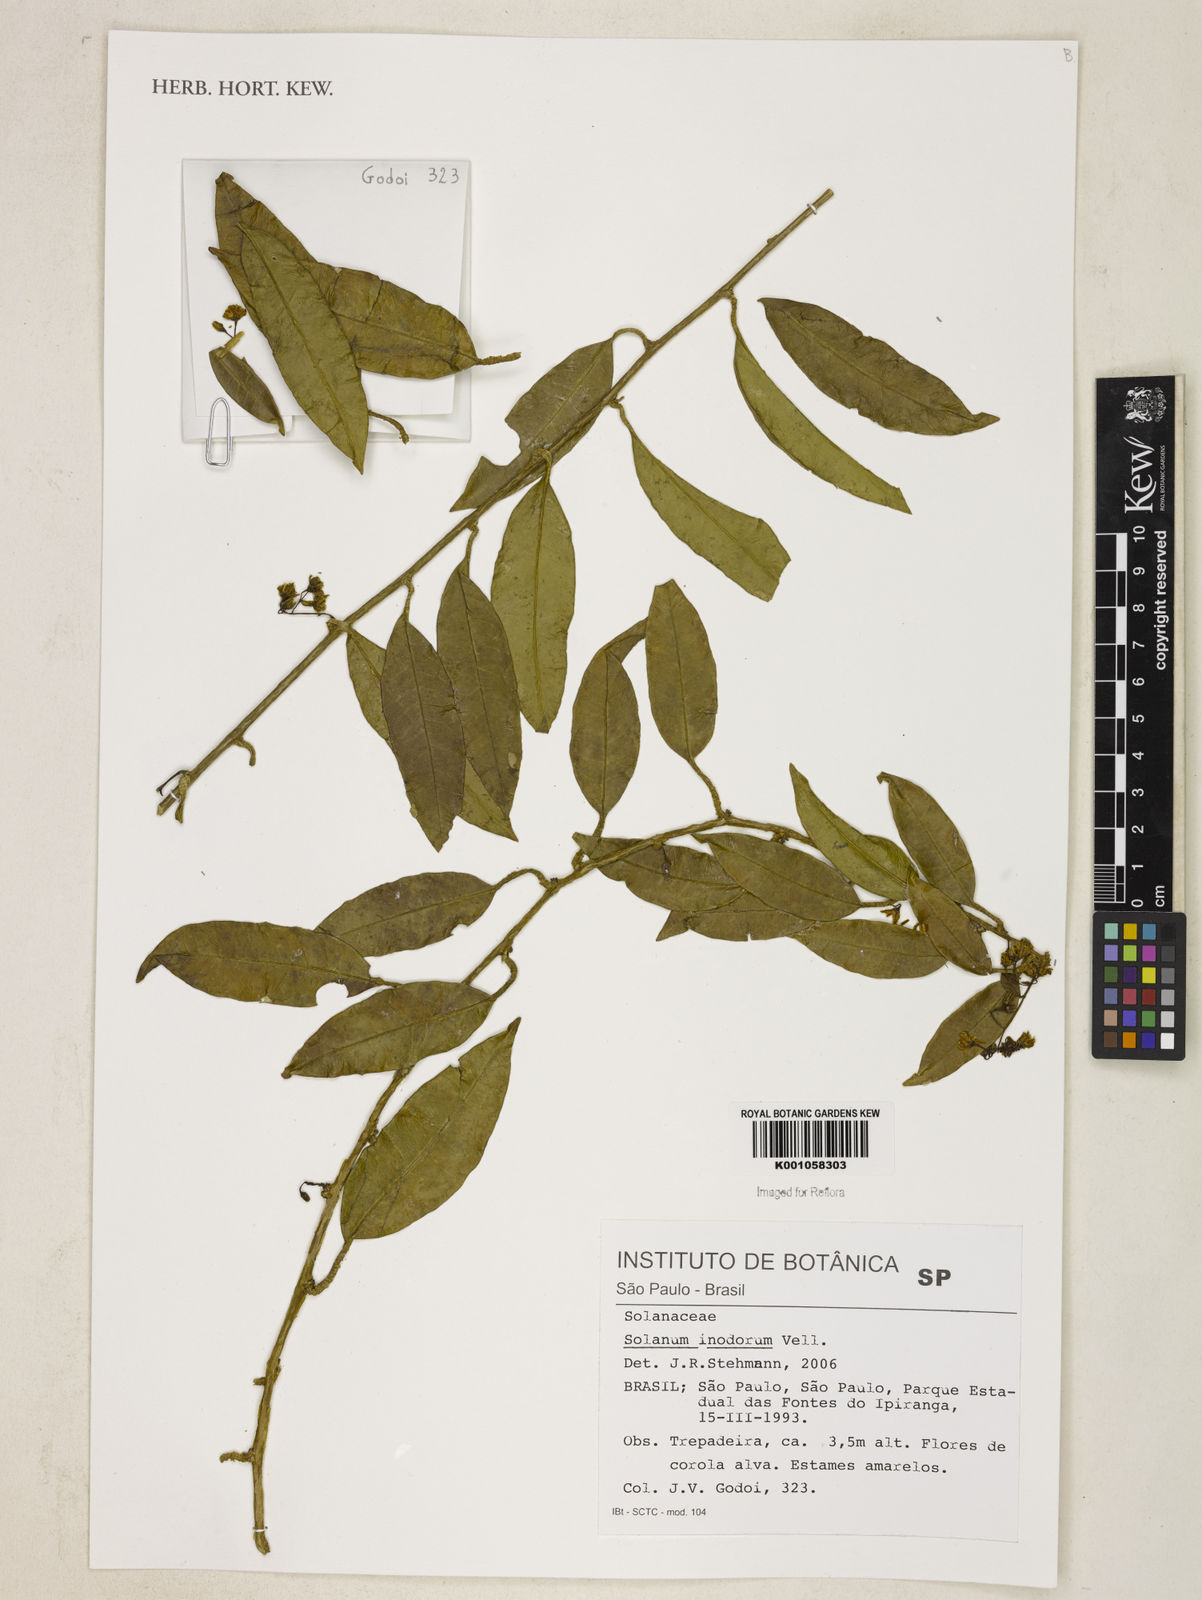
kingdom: Plantae
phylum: Tracheophyta
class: Magnoliopsida
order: Solanales
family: Solanaceae
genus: Solanum
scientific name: Solanum inodorum
